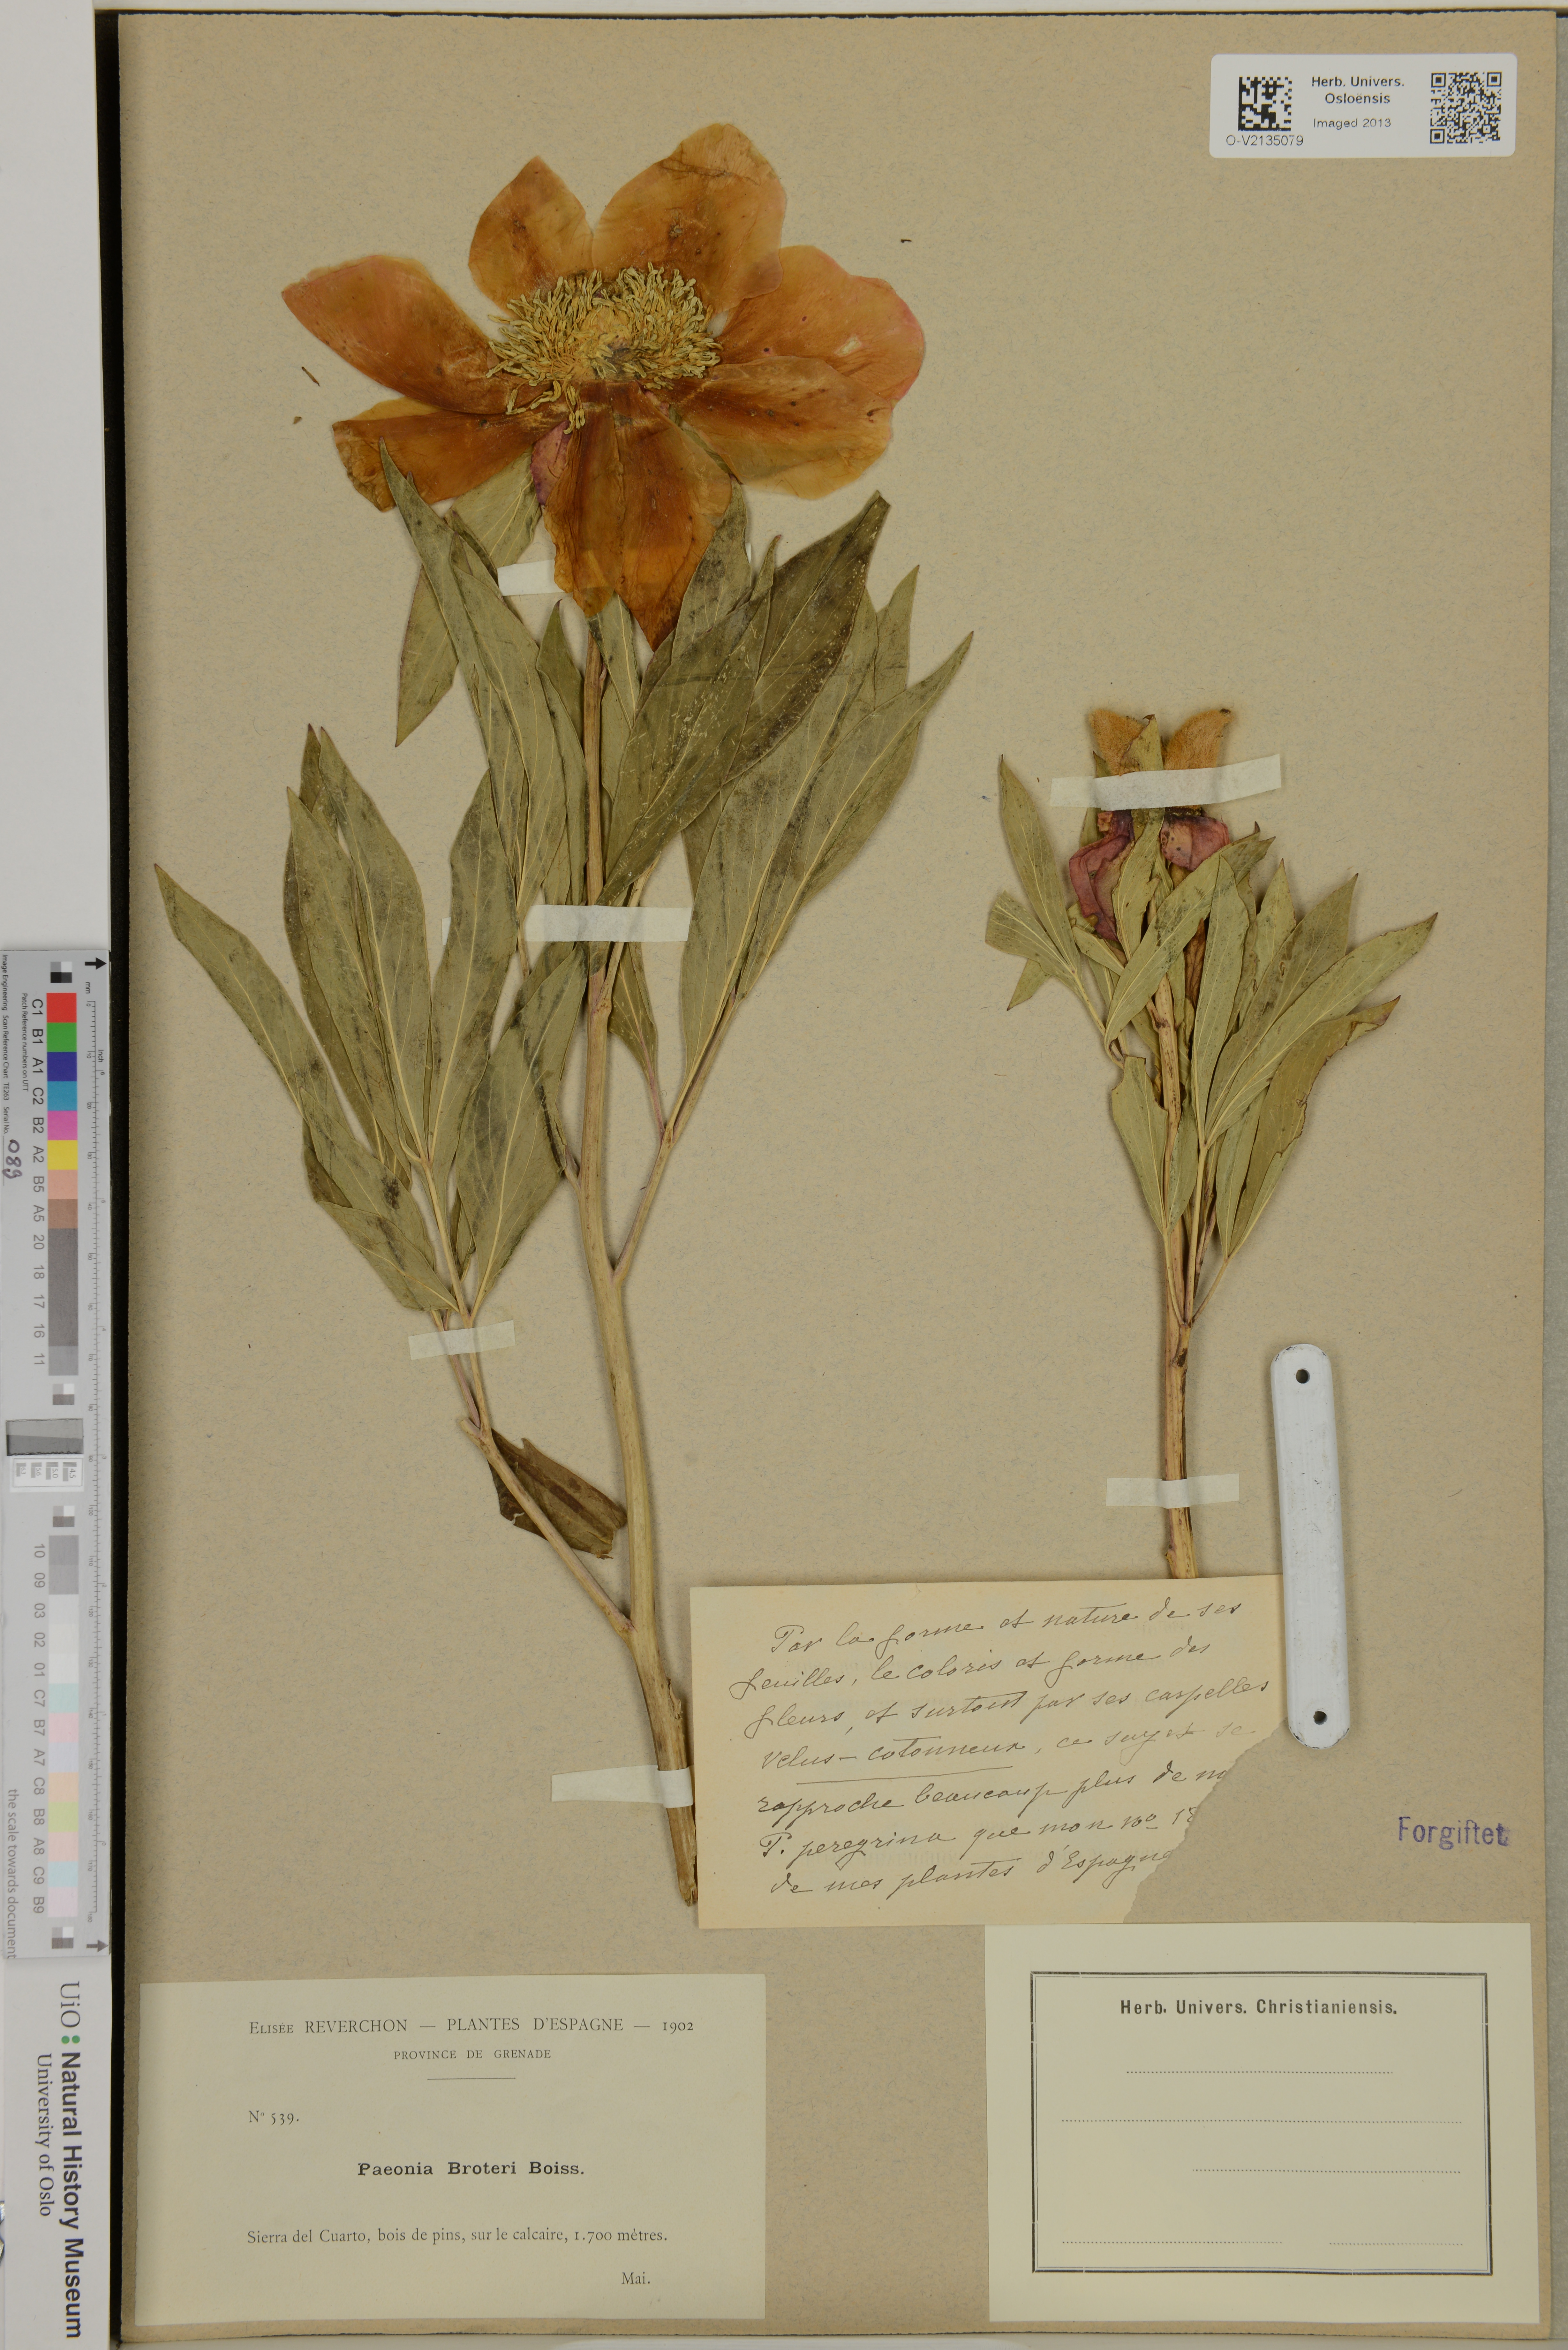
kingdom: Plantae
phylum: Tracheophyta
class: Magnoliopsida
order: Saxifragales
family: Paeoniaceae
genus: Paeonia
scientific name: Paeonia broteroi
